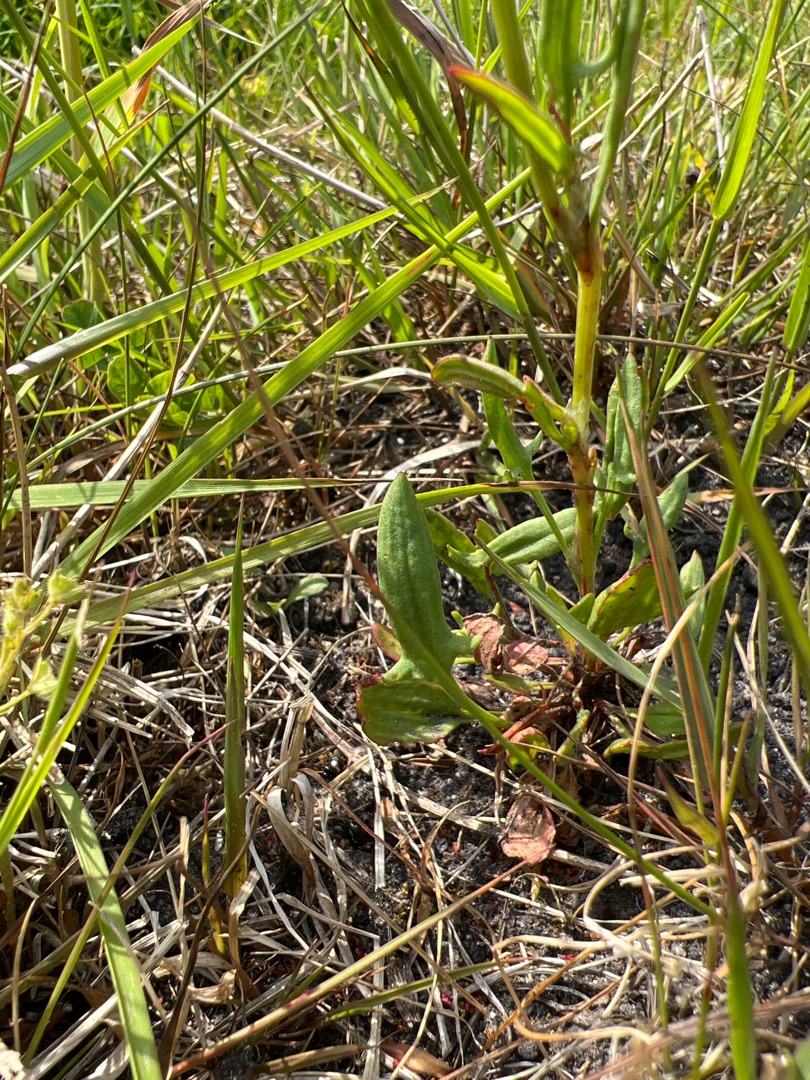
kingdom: Plantae
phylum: Tracheophyta
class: Magnoliopsida
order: Caryophyllales
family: Polygonaceae
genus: Rumex
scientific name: Rumex acetosella
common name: Rødknæ
